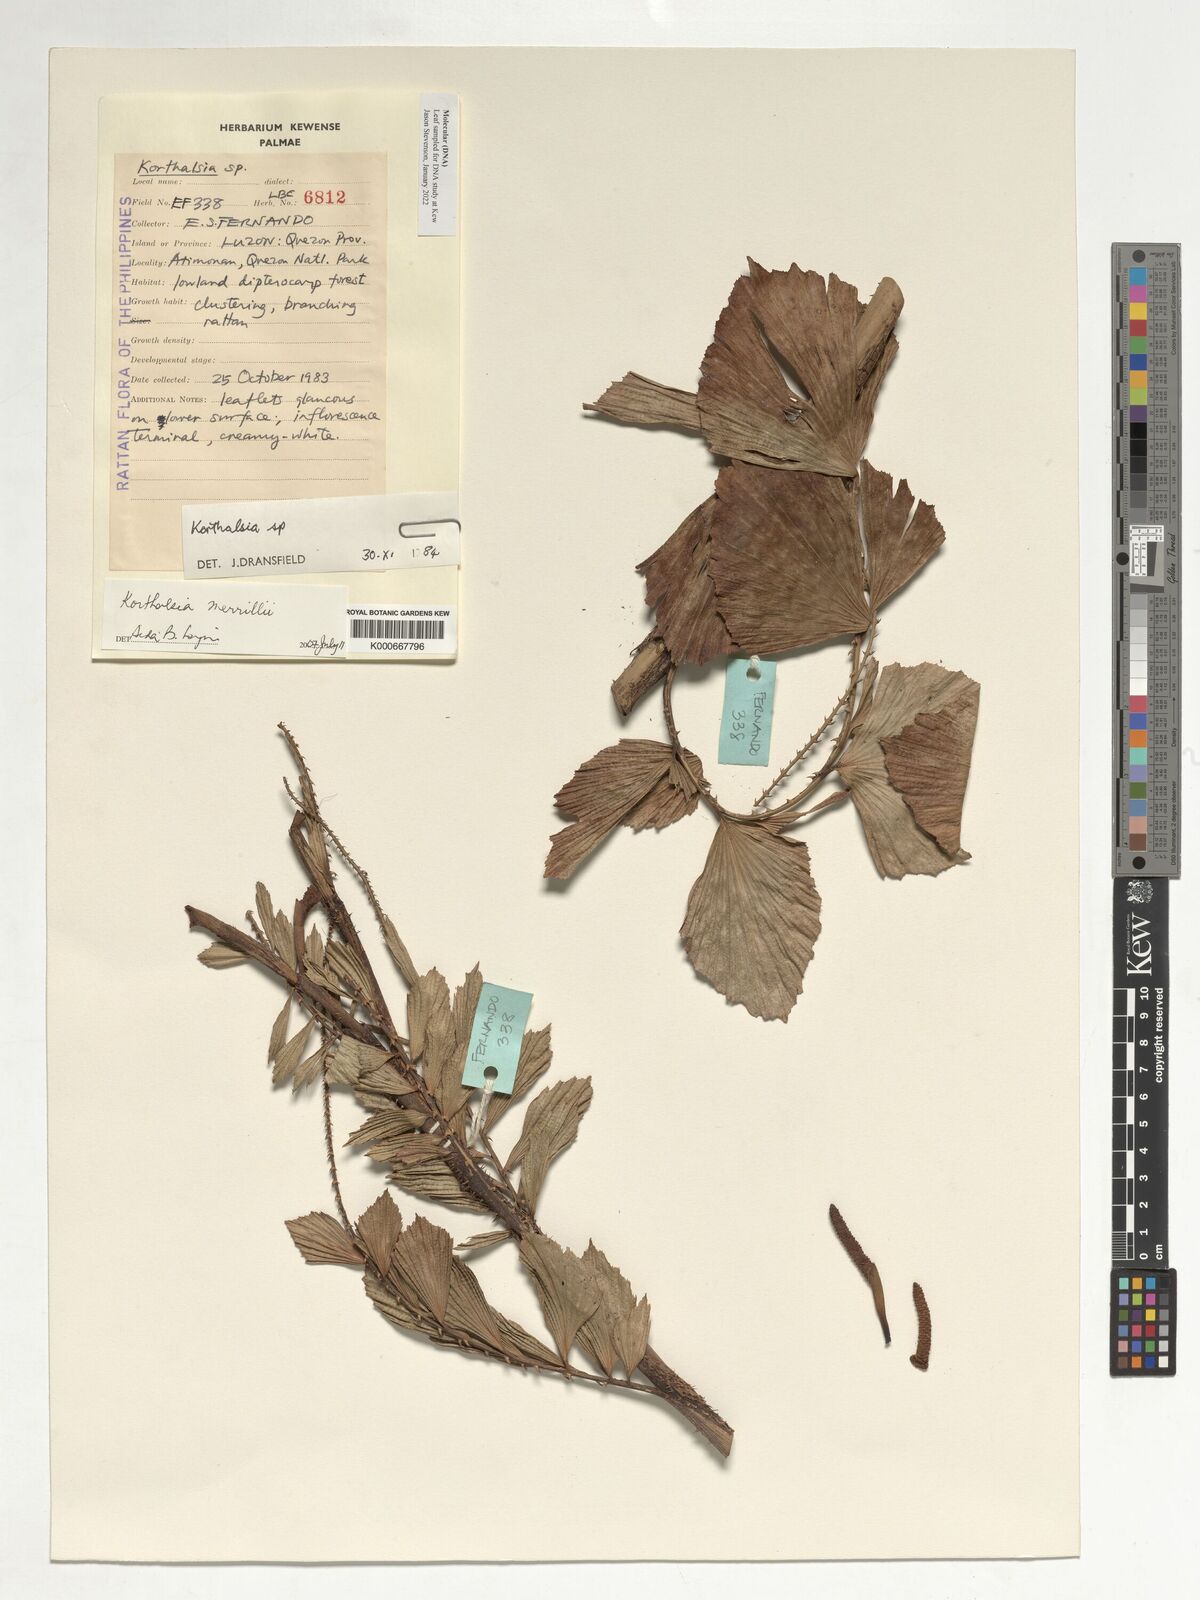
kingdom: Plantae
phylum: Tracheophyta
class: Liliopsida
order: Arecales
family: Arecaceae
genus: Korthalsia
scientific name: Korthalsia merrillii
